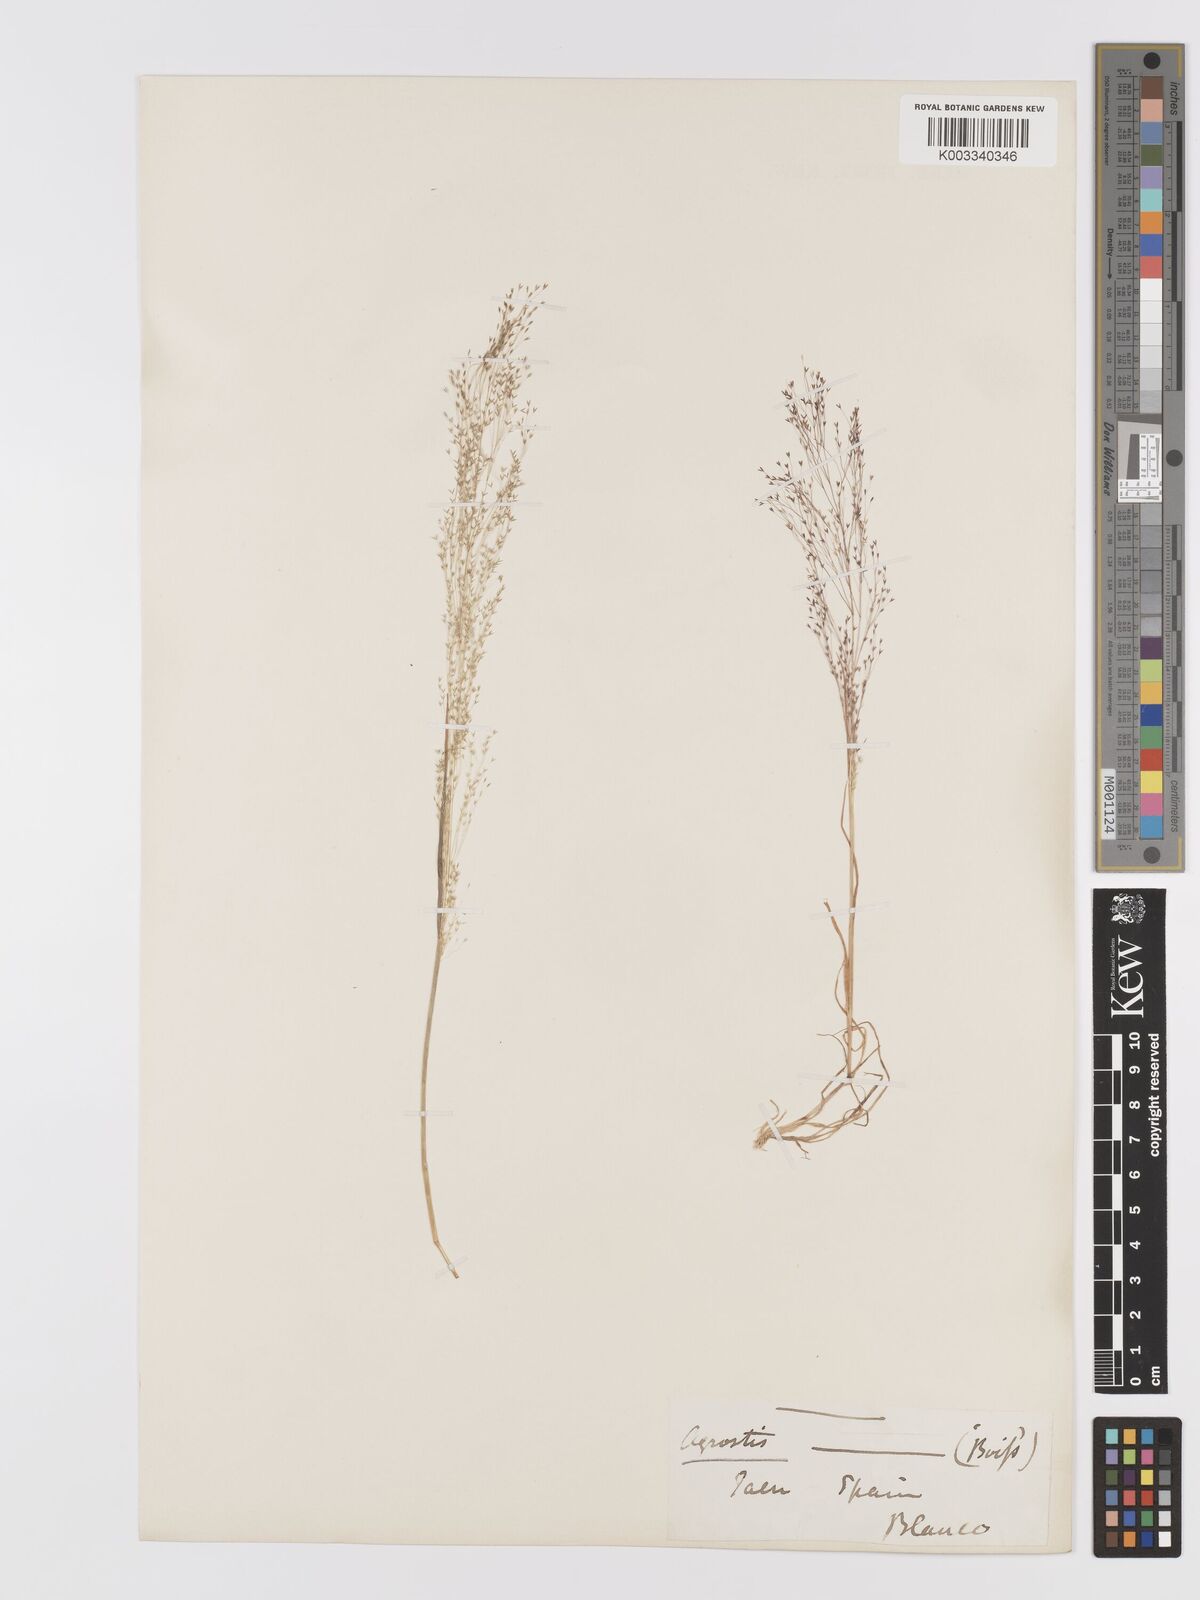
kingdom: Plantae
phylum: Tracheophyta
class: Liliopsida
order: Poales
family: Poaceae
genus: Agrostis
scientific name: Agrostis nebulosa
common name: Cloud grass
